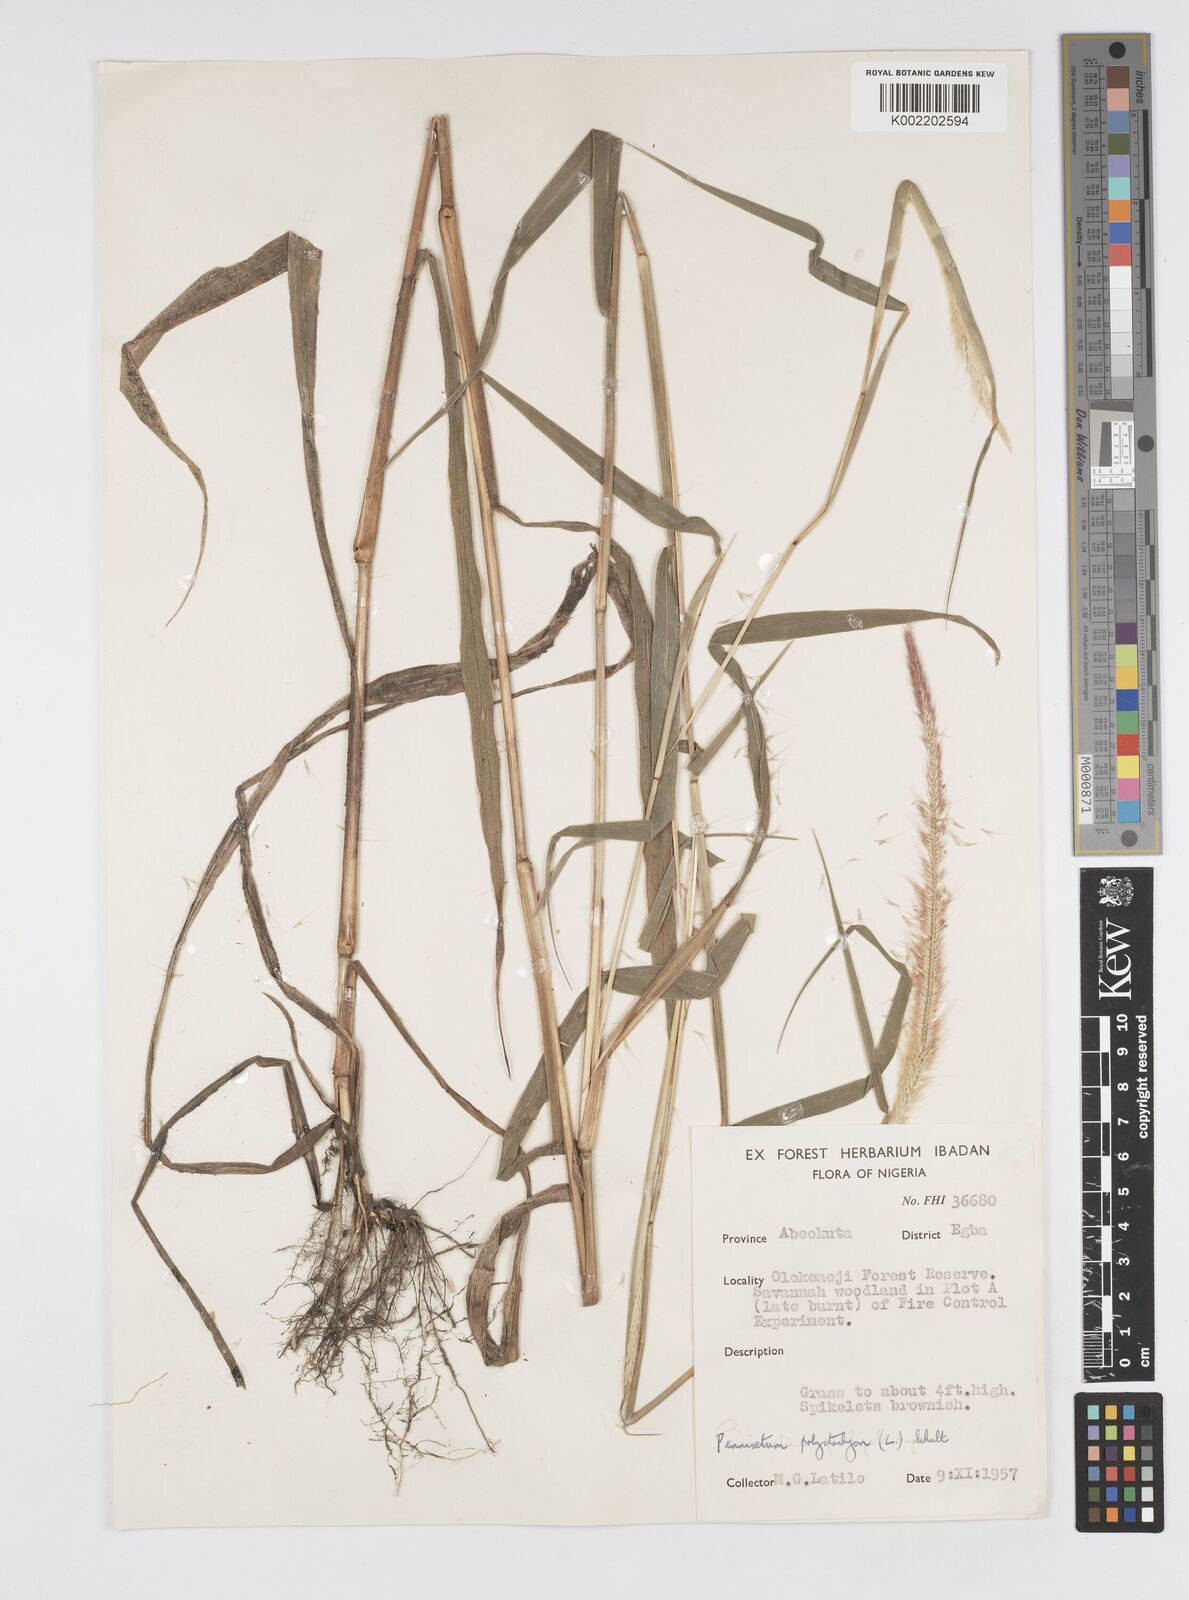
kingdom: Plantae
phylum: Tracheophyta
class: Liliopsida
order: Poales
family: Poaceae
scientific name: Poaceae
